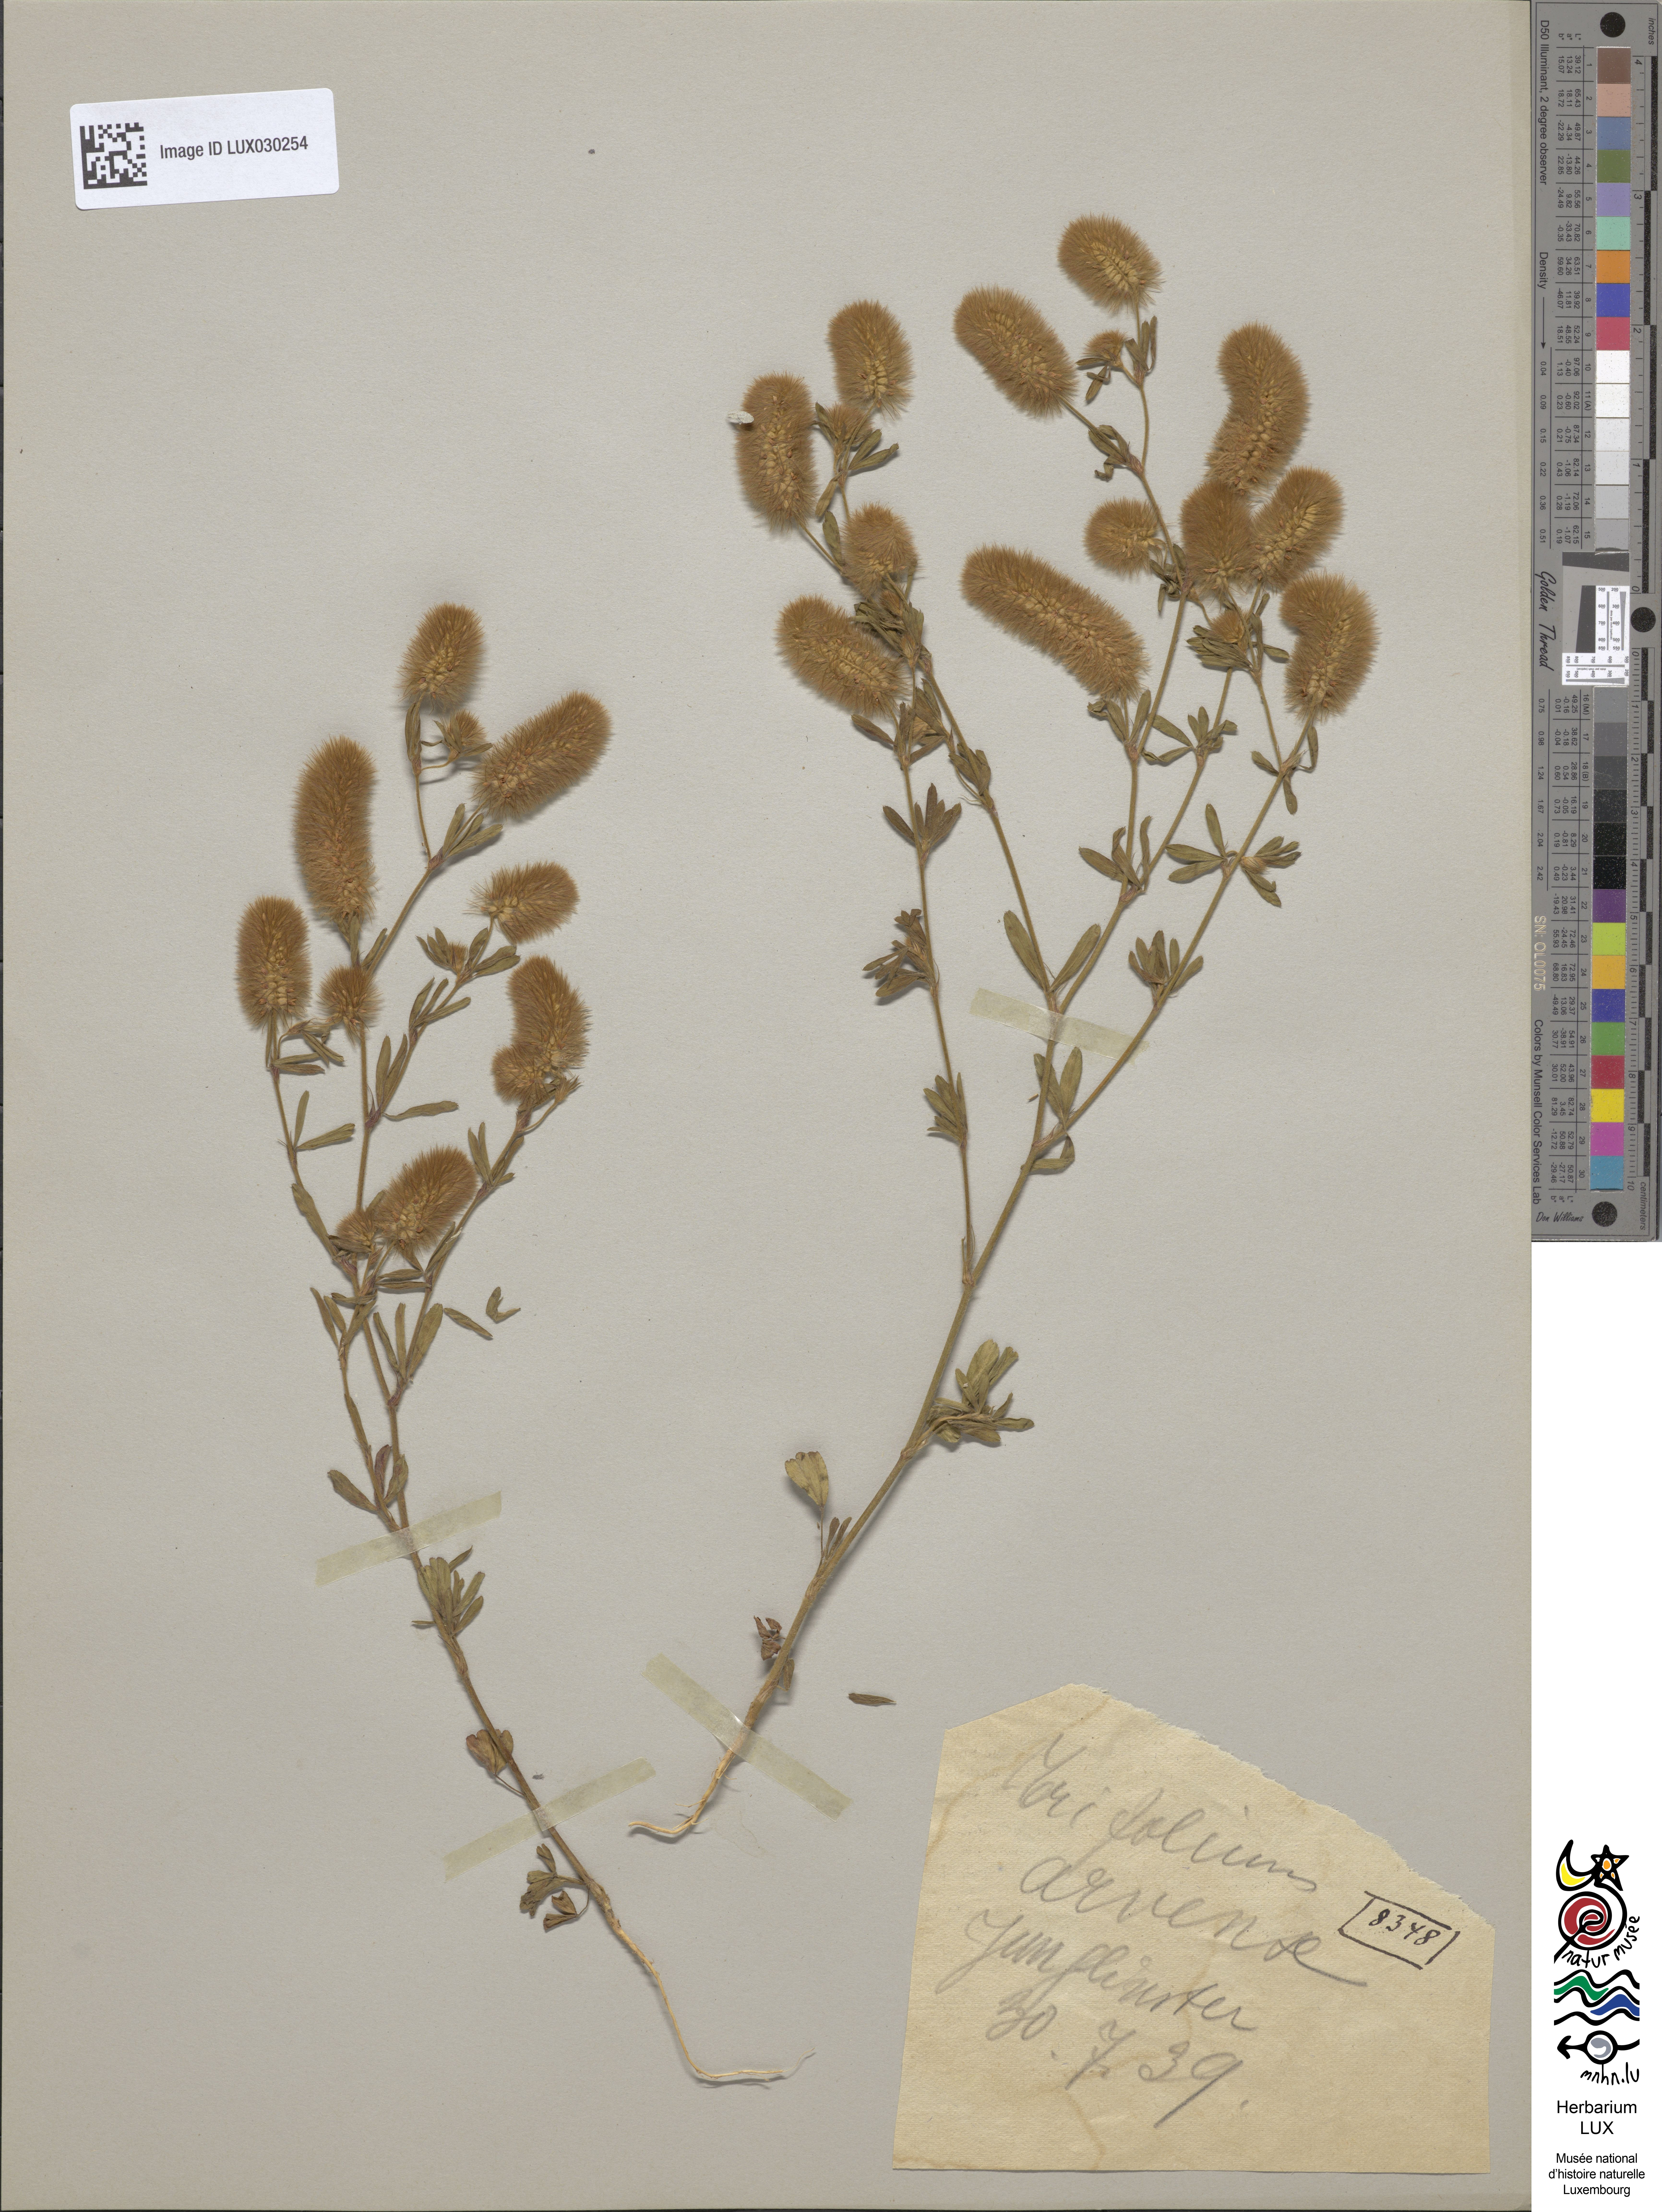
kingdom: Plantae
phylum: Tracheophyta
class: Magnoliopsida
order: Fabales
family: Fabaceae
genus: Trifolium
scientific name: Trifolium arvense
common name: Hare's-foot clover
